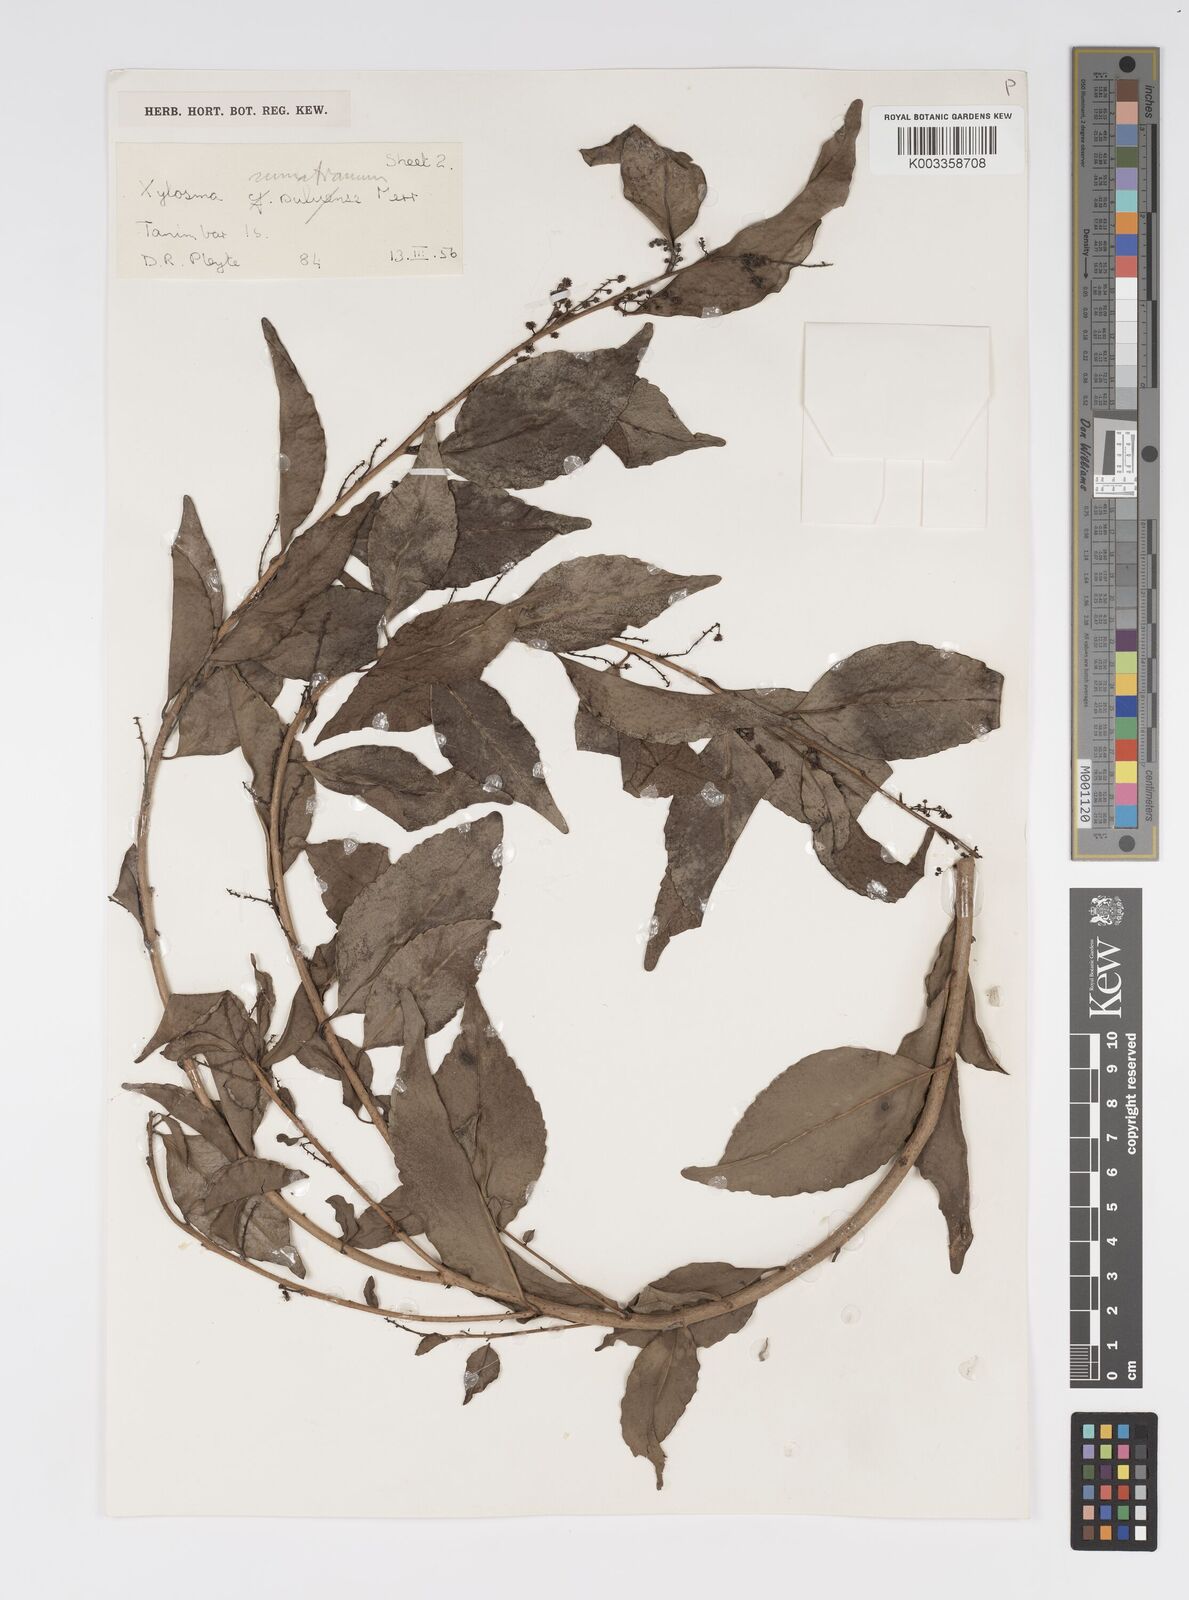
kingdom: Plantae
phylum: Tracheophyta
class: Magnoliopsida
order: Malpighiales
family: Salicaceae
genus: Xylosma
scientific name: Xylosma sumatrana
